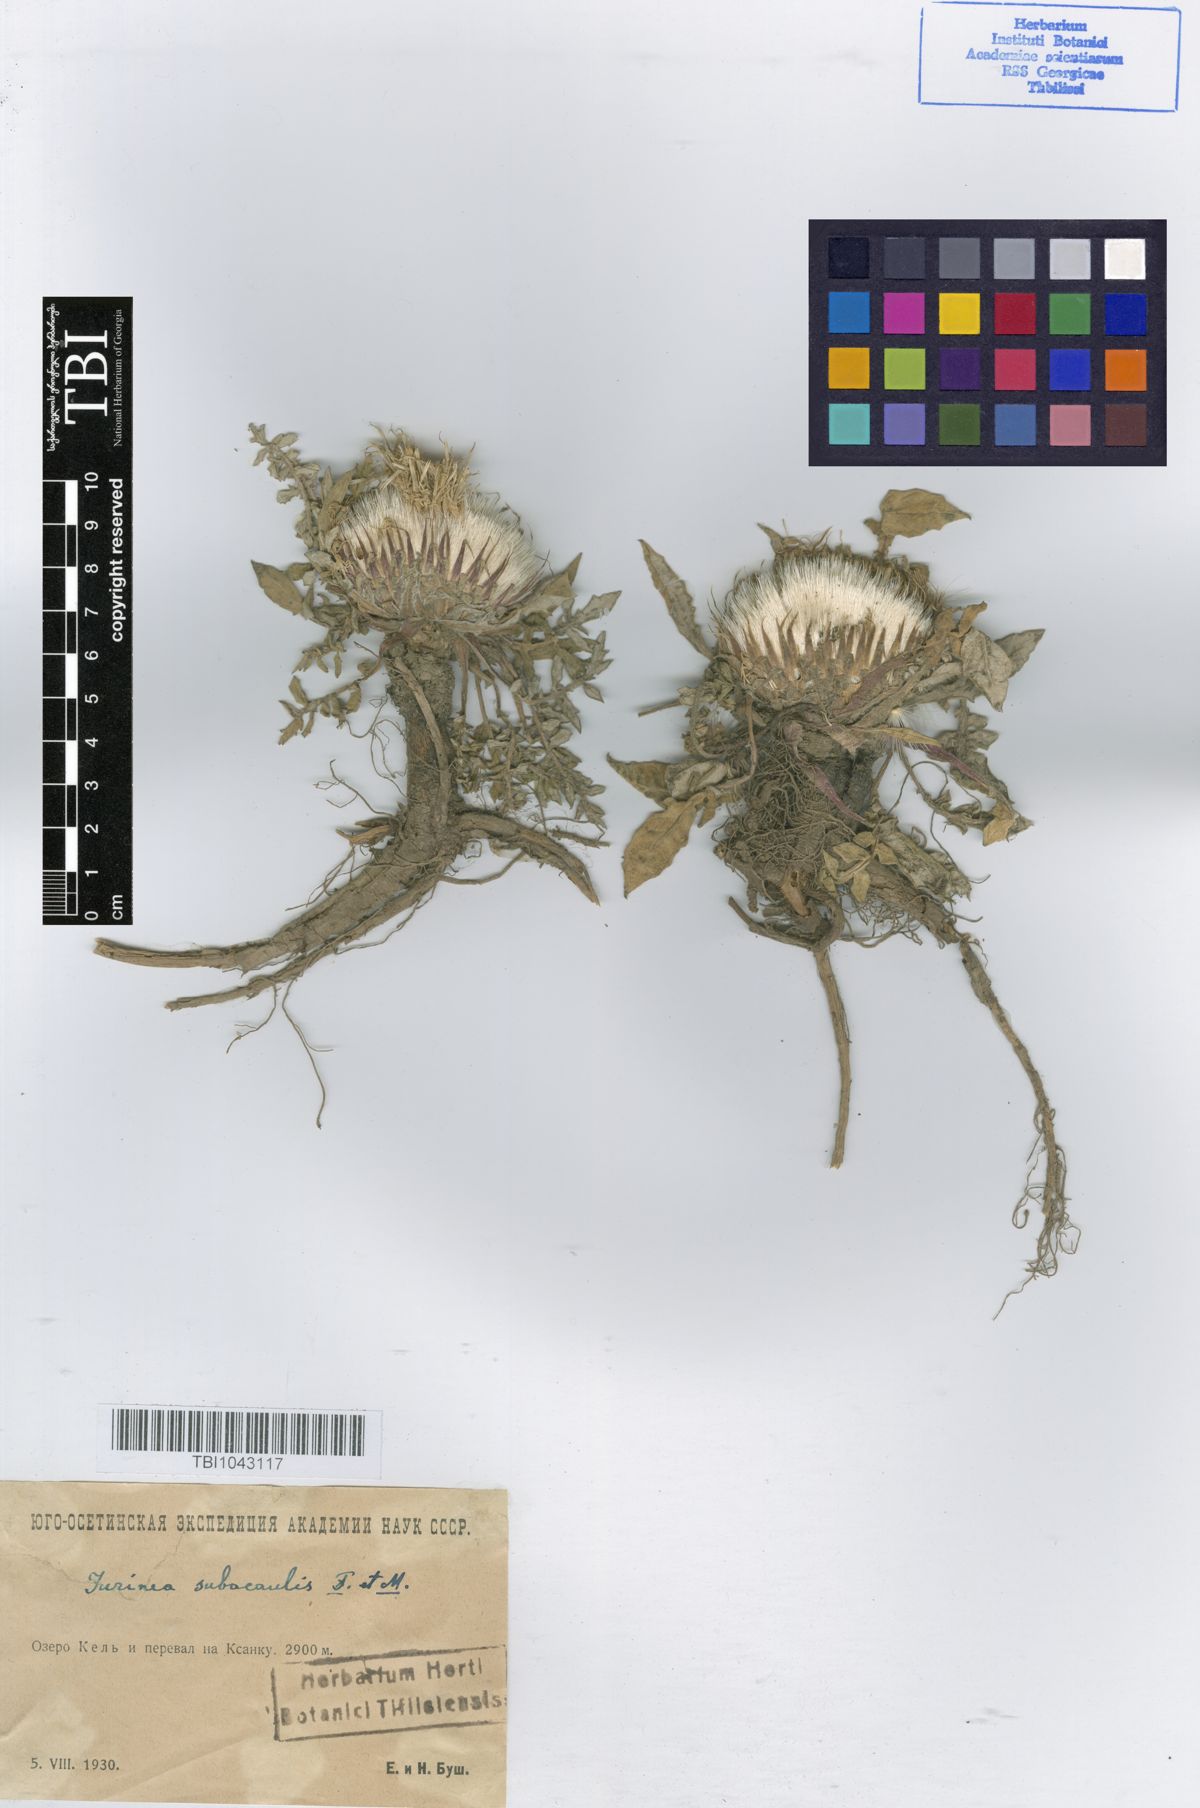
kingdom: Plantae
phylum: Tracheophyta
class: Magnoliopsida
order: Asterales
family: Asteraceae
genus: Jurinea
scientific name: Jurinea moschus
